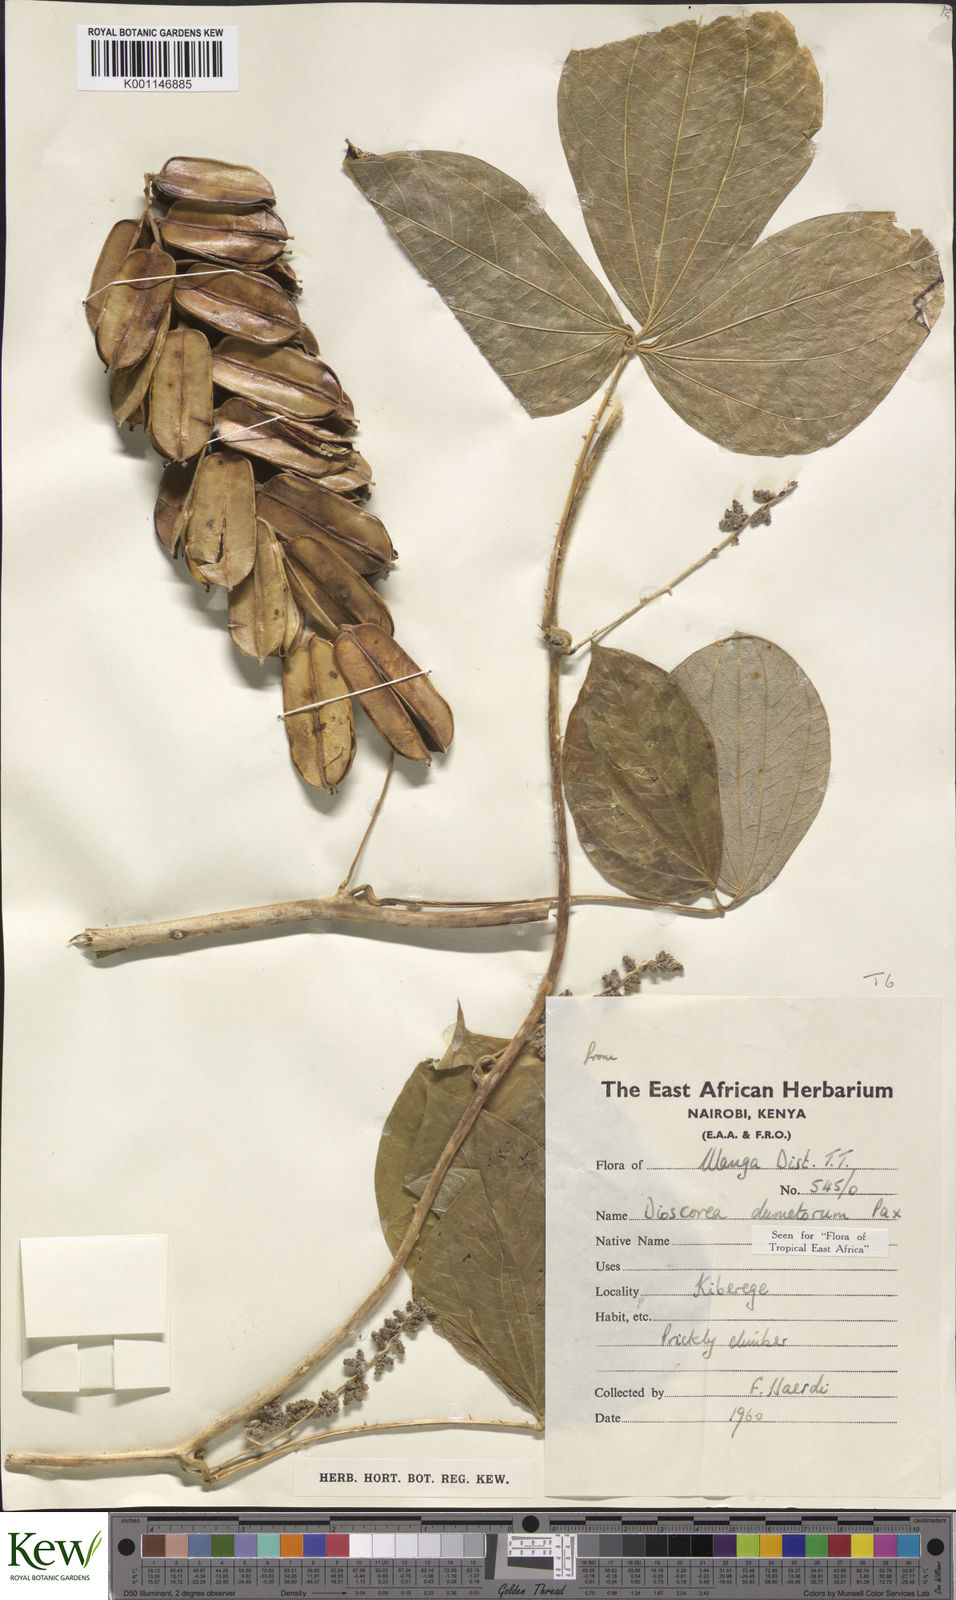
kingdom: Plantae
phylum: Tracheophyta
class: Liliopsida
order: Dioscoreales
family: Dioscoreaceae
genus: Dioscorea
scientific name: Dioscorea dumetorum
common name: African bitter yam
